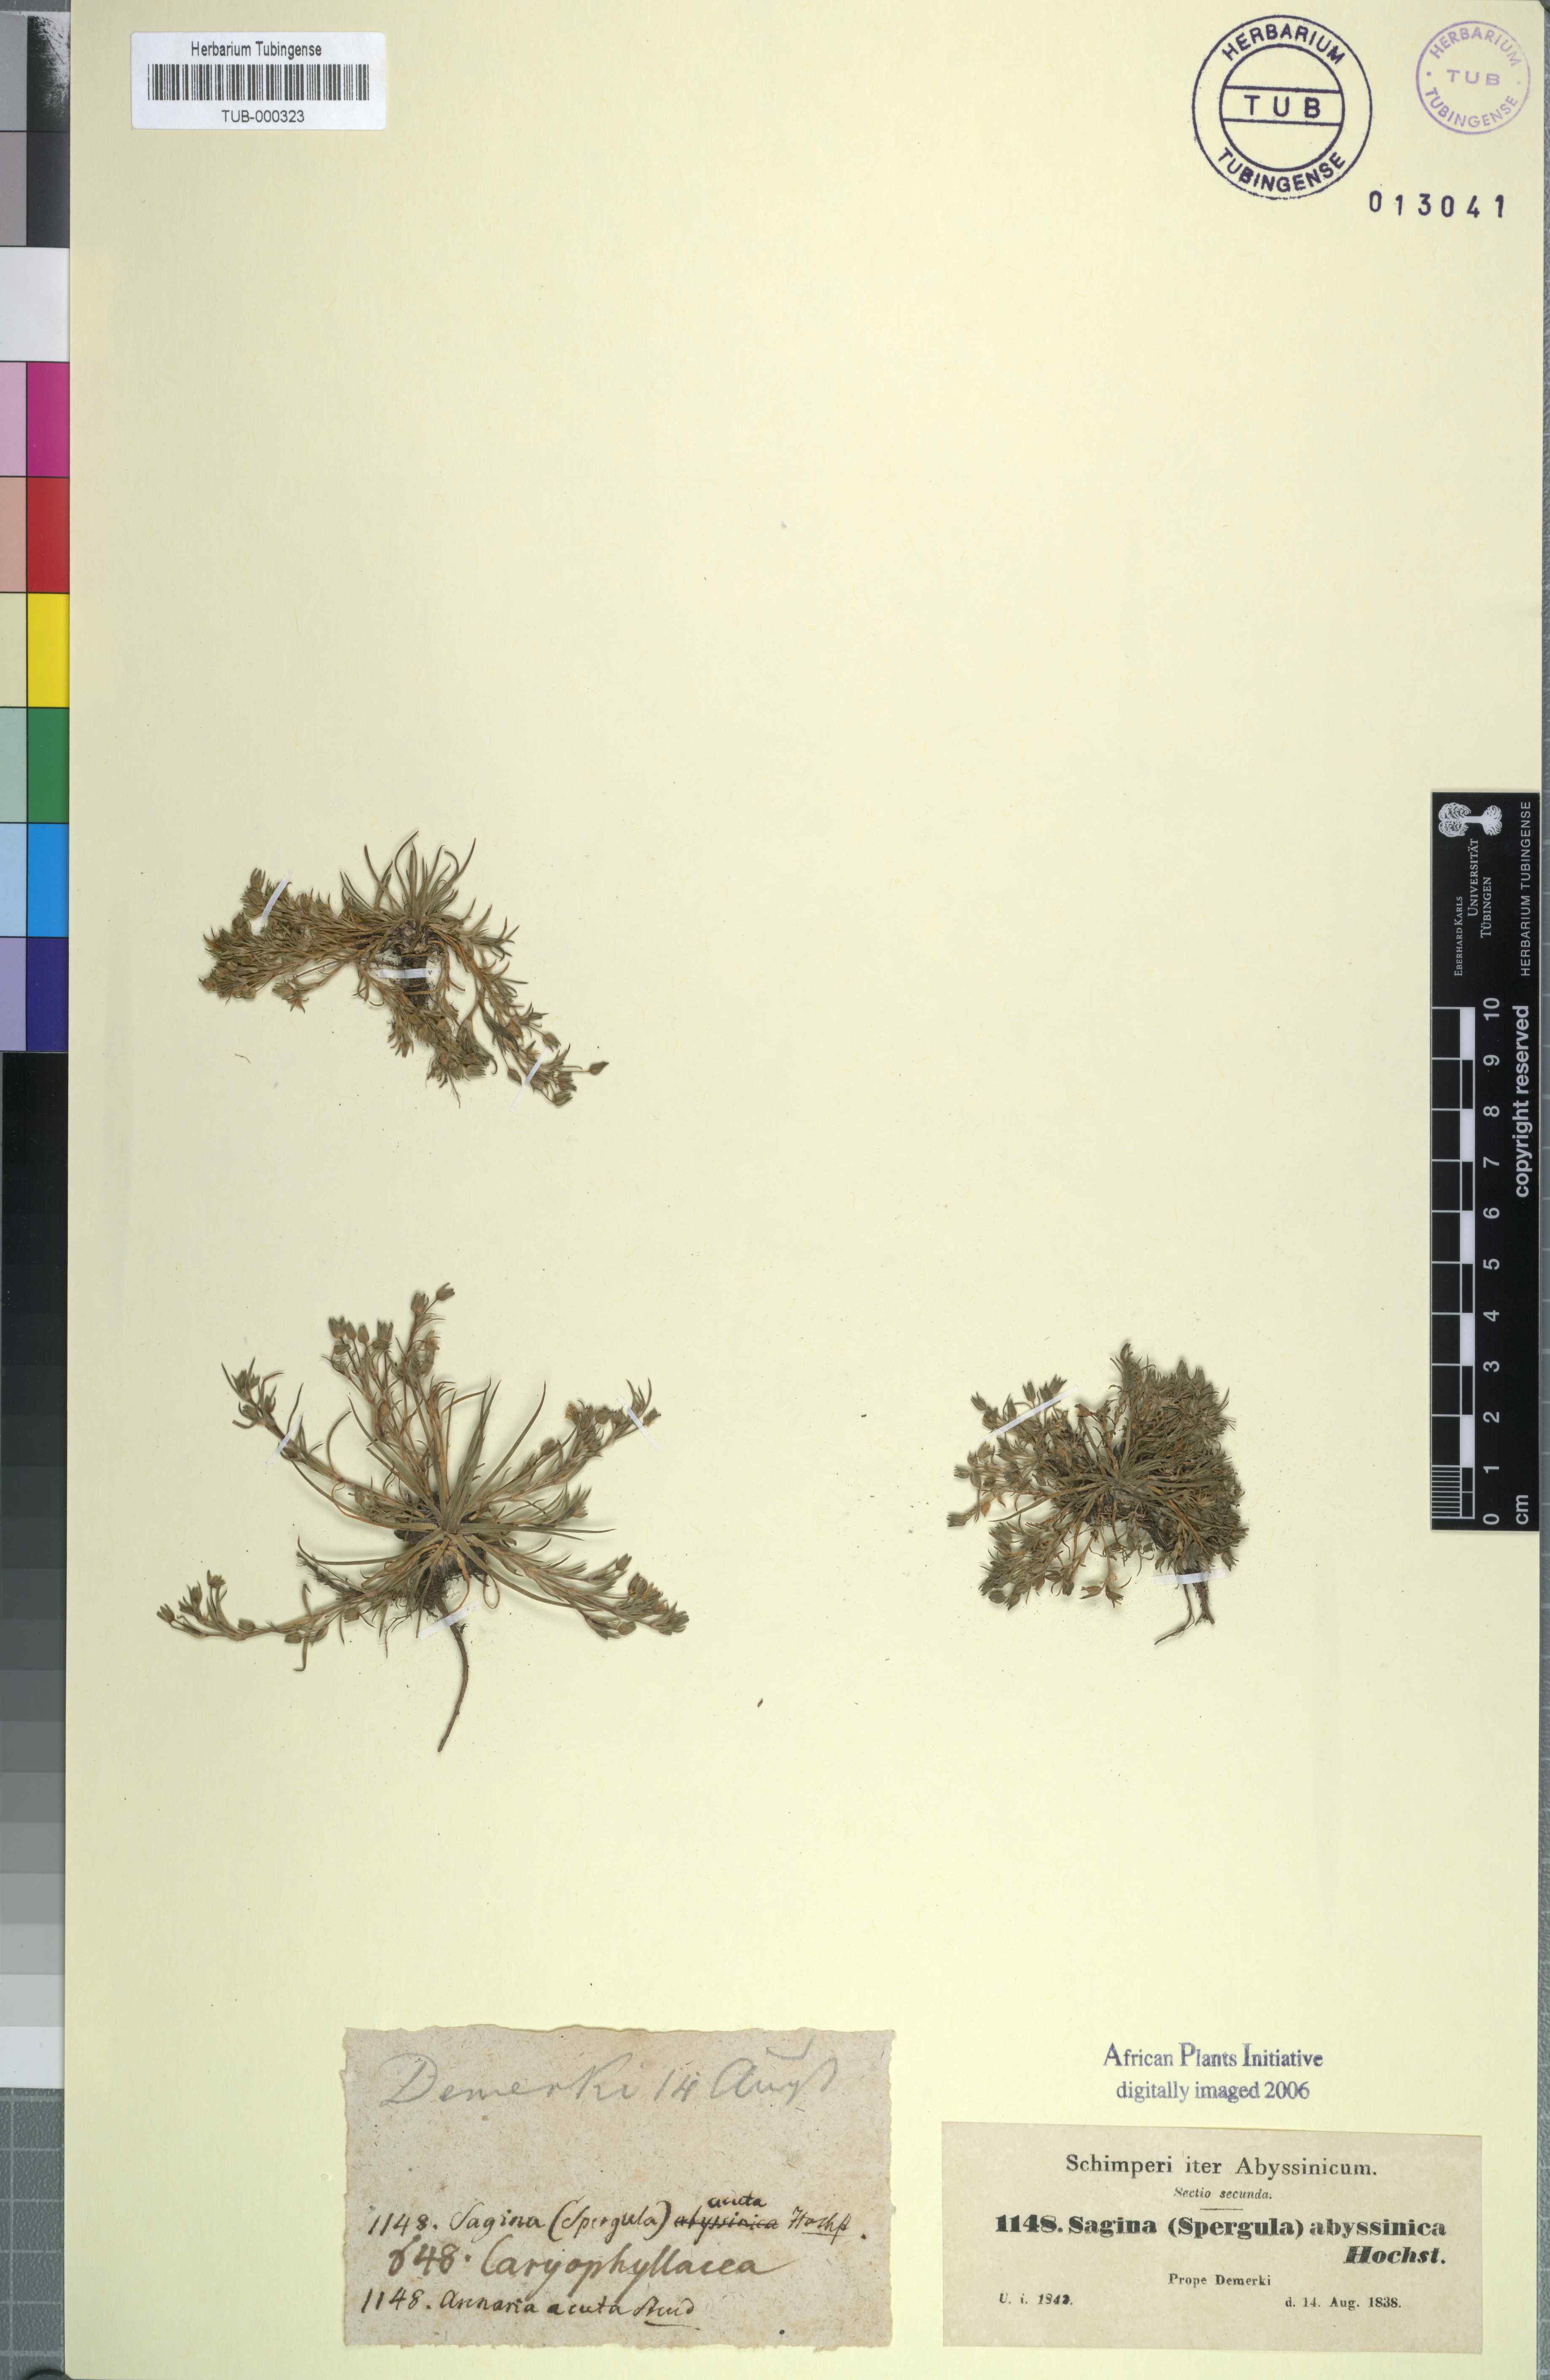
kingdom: Plantae
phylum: Tracheophyta
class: Magnoliopsida
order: Caryophyllales
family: Caryophyllaceae
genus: Sagina
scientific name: Sagina abyssinica
